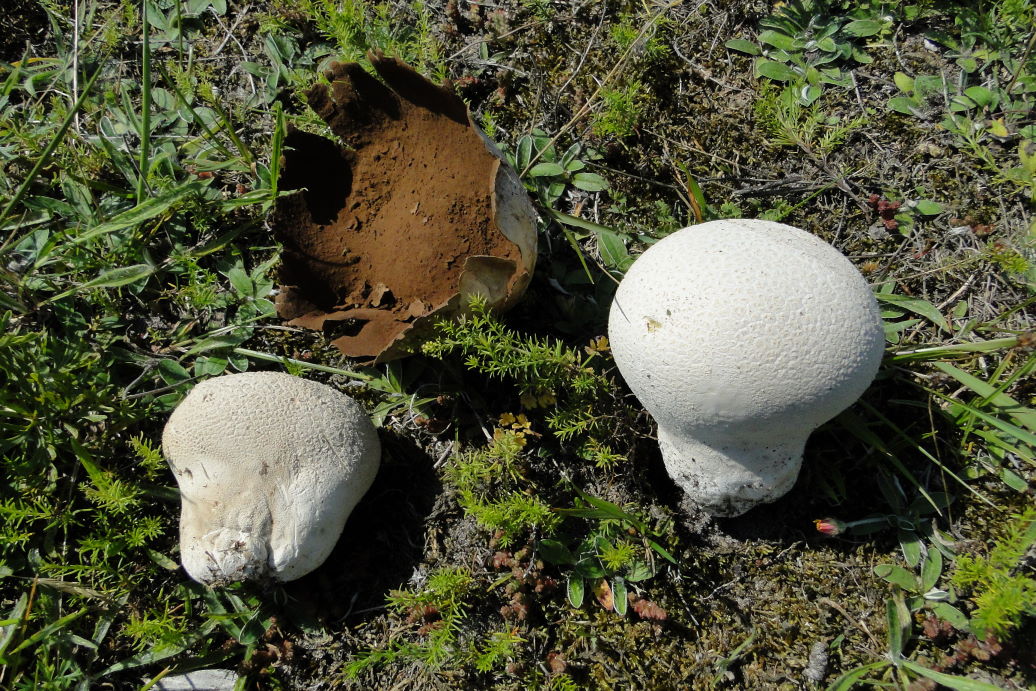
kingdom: Fungi
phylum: Basidiomycota
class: Agaricomycetes
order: Agaricales
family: Lycoperdaceae
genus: Bovistella
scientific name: Bovistella utriformis
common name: skællet støvbold
